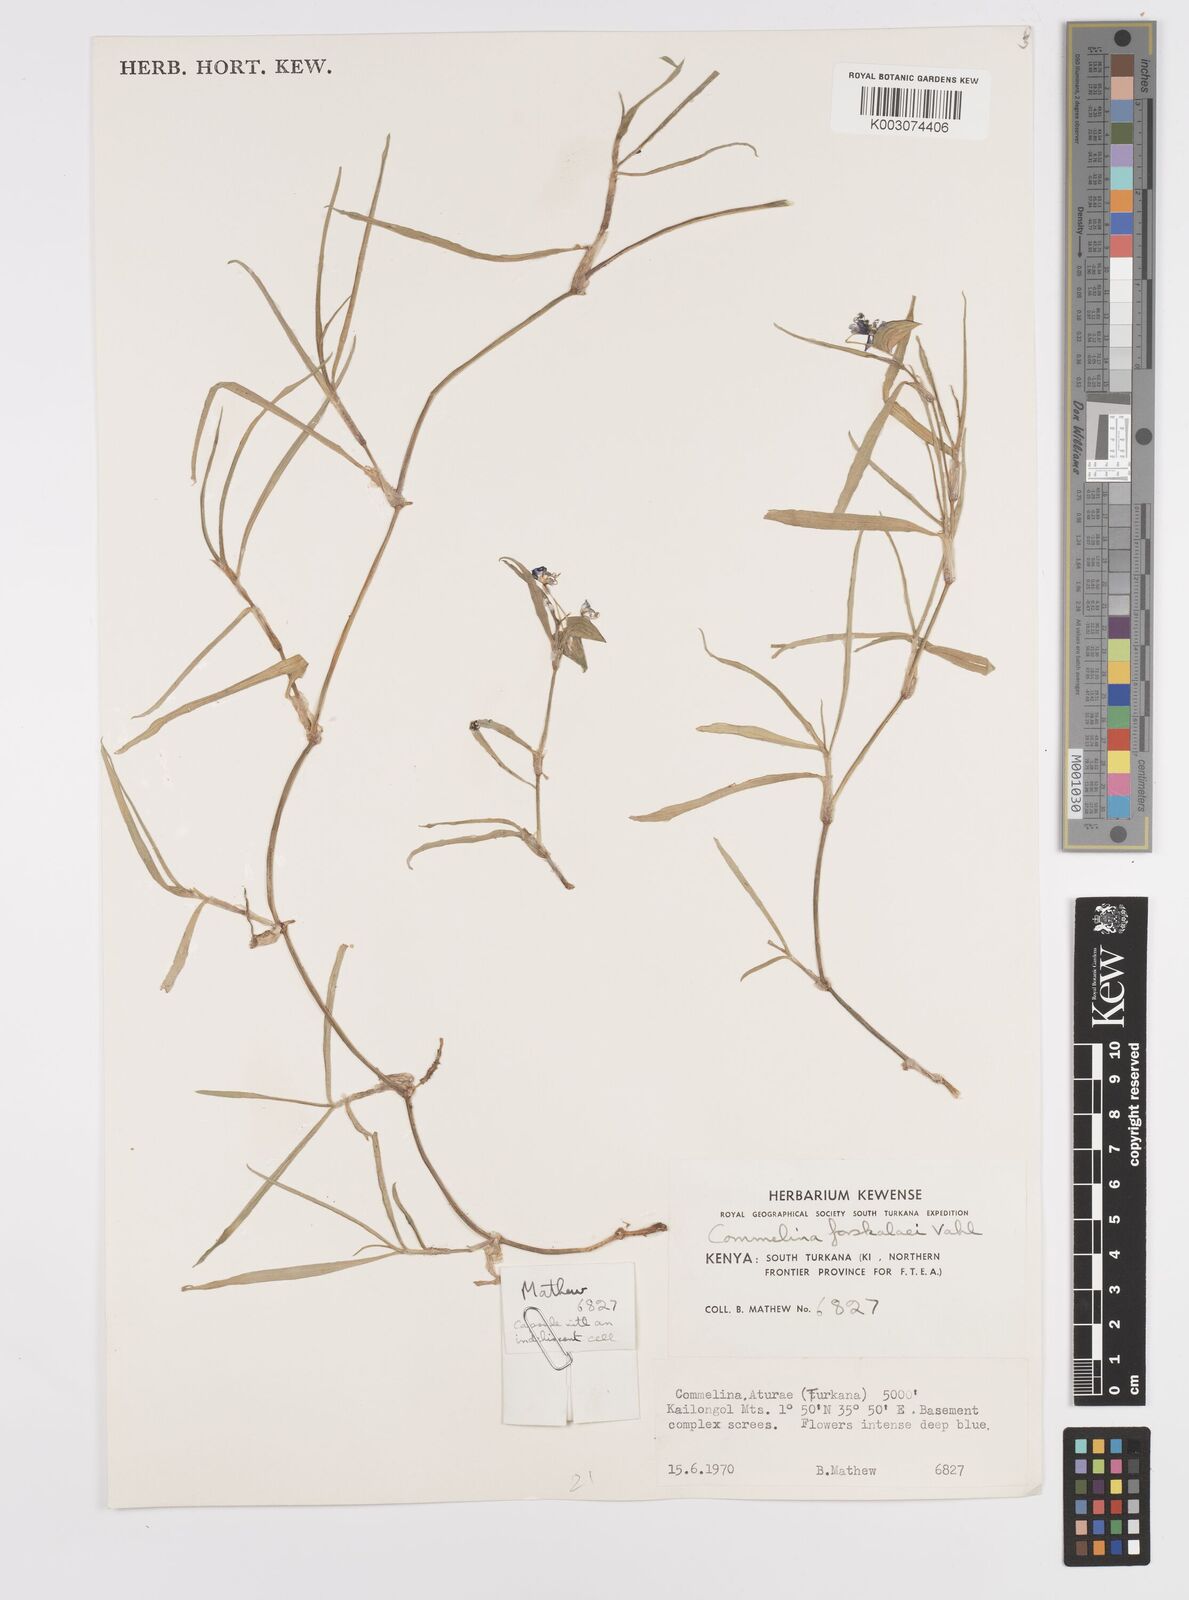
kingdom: Plantae
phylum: Tracheophyta
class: Liliopsida
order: Commelinales
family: Commelinaceae
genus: Commelina
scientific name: Commelina forskaolii
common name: Rat's ear
